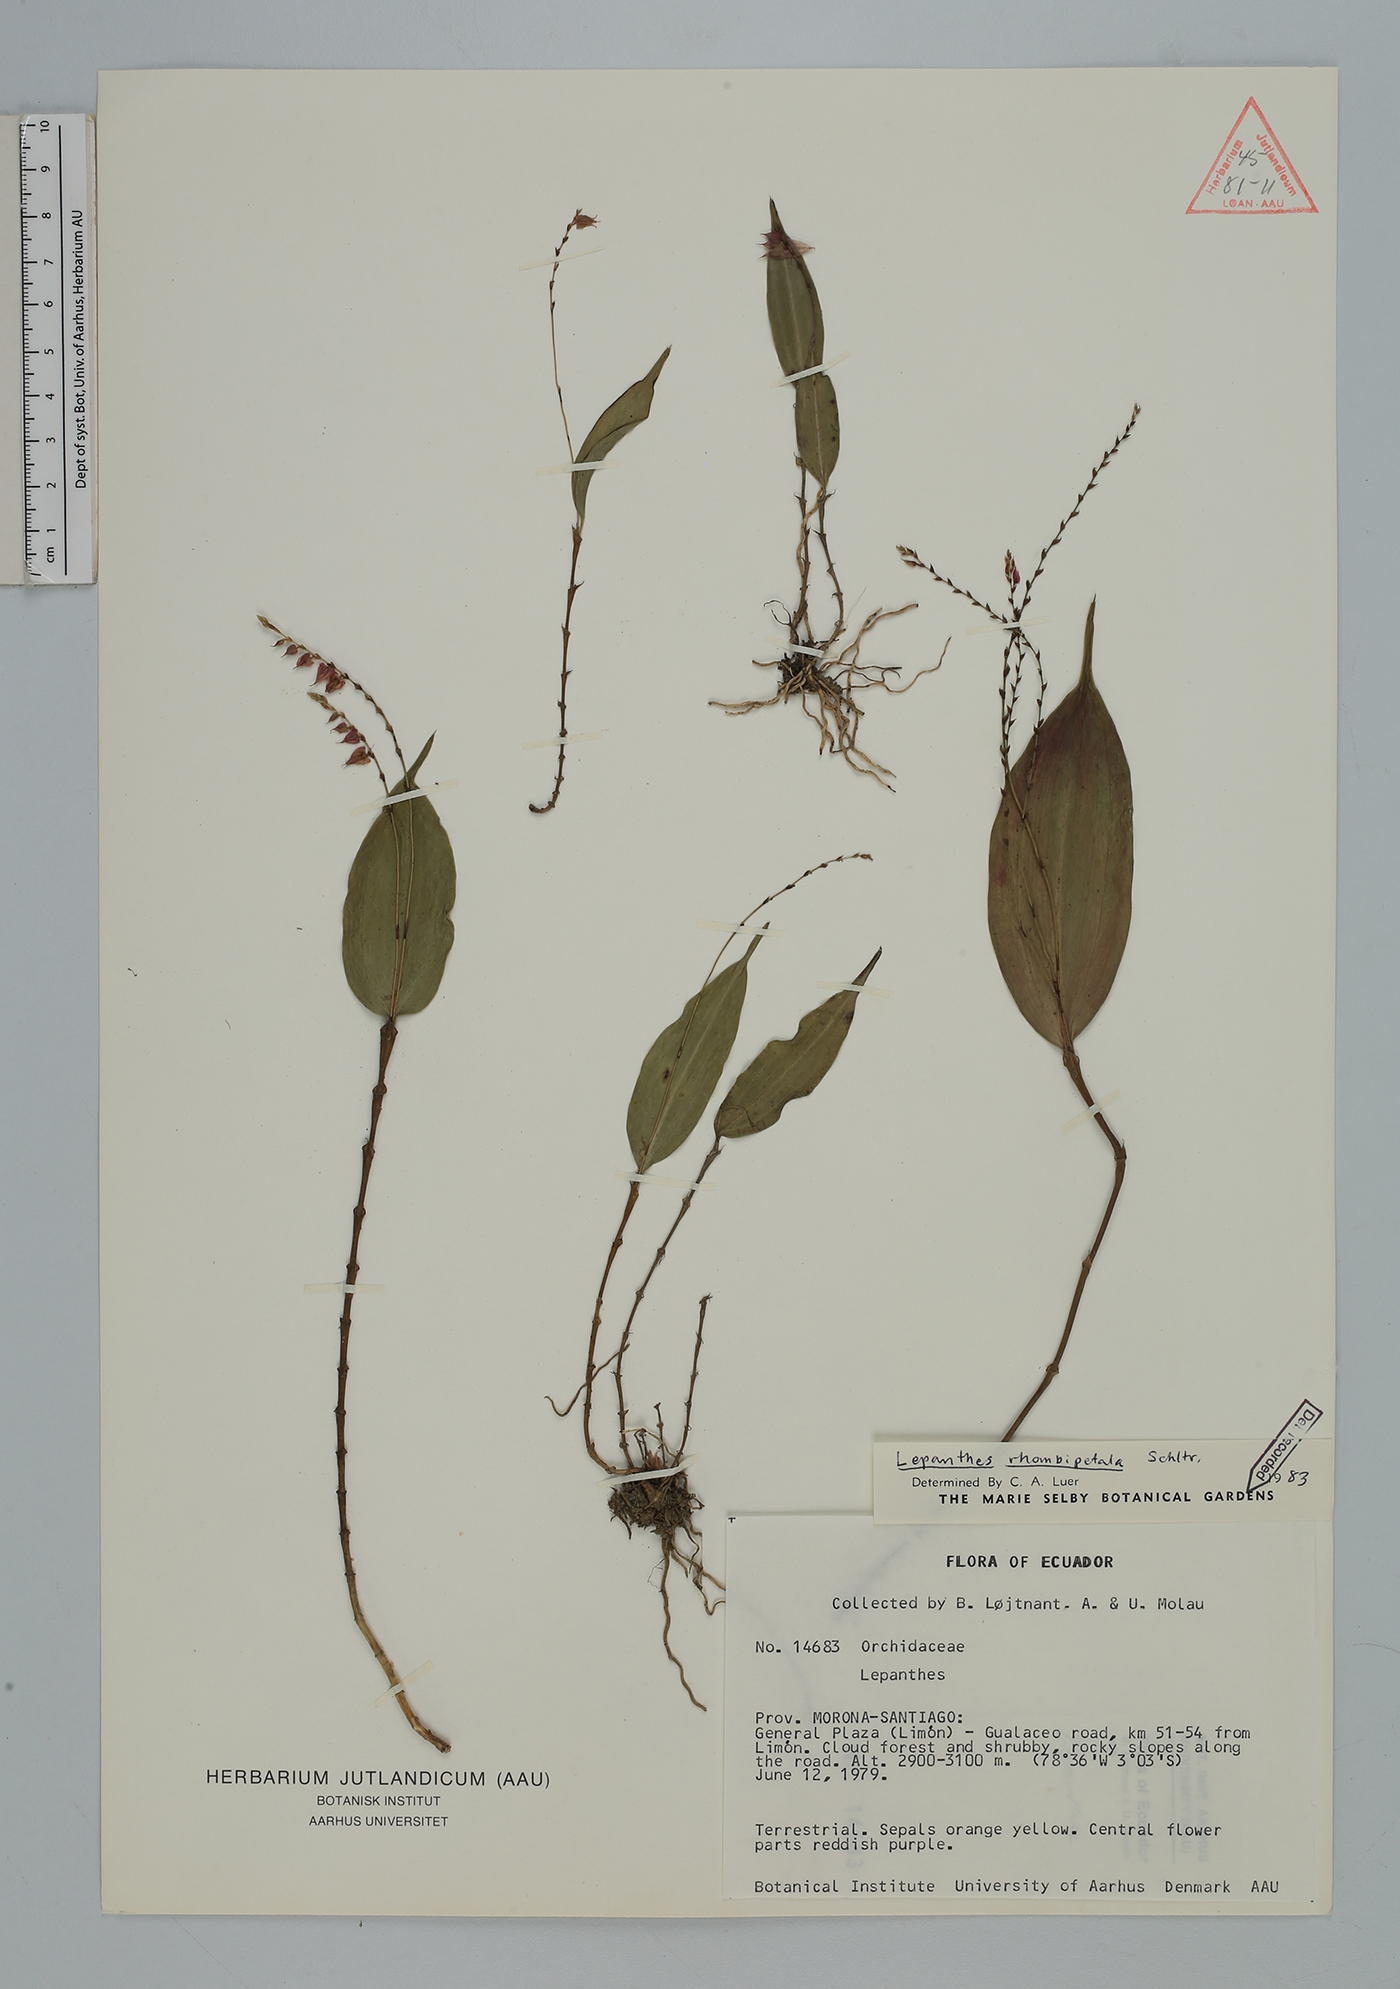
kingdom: Plantae
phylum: Tracheophyta
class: Liliopsida
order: Asparagales
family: Orchidaceae
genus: Lepanthes
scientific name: Lepanthes rhombipetala
